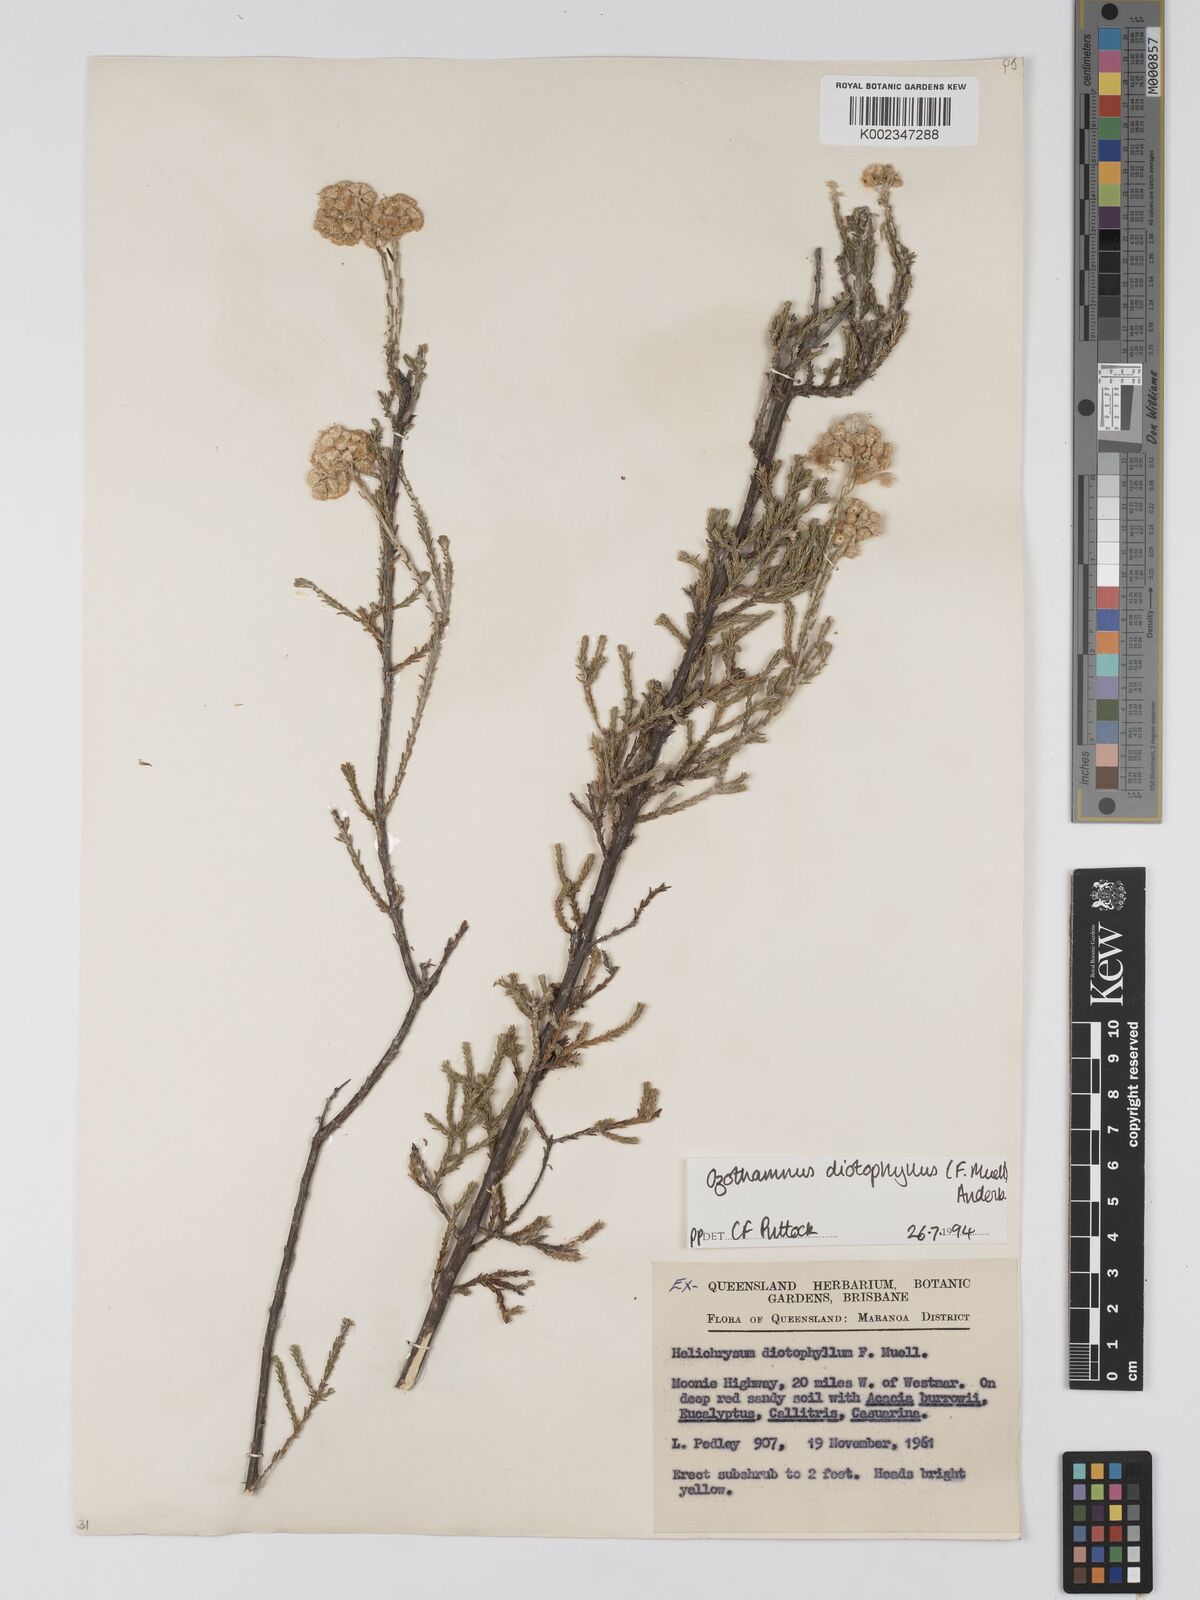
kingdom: Plantae
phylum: Tracheophyta
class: Magnoliopsida
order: Asterales
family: Asteraceae
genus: Ozothamnus
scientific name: Ozothamnus diotophyllus
